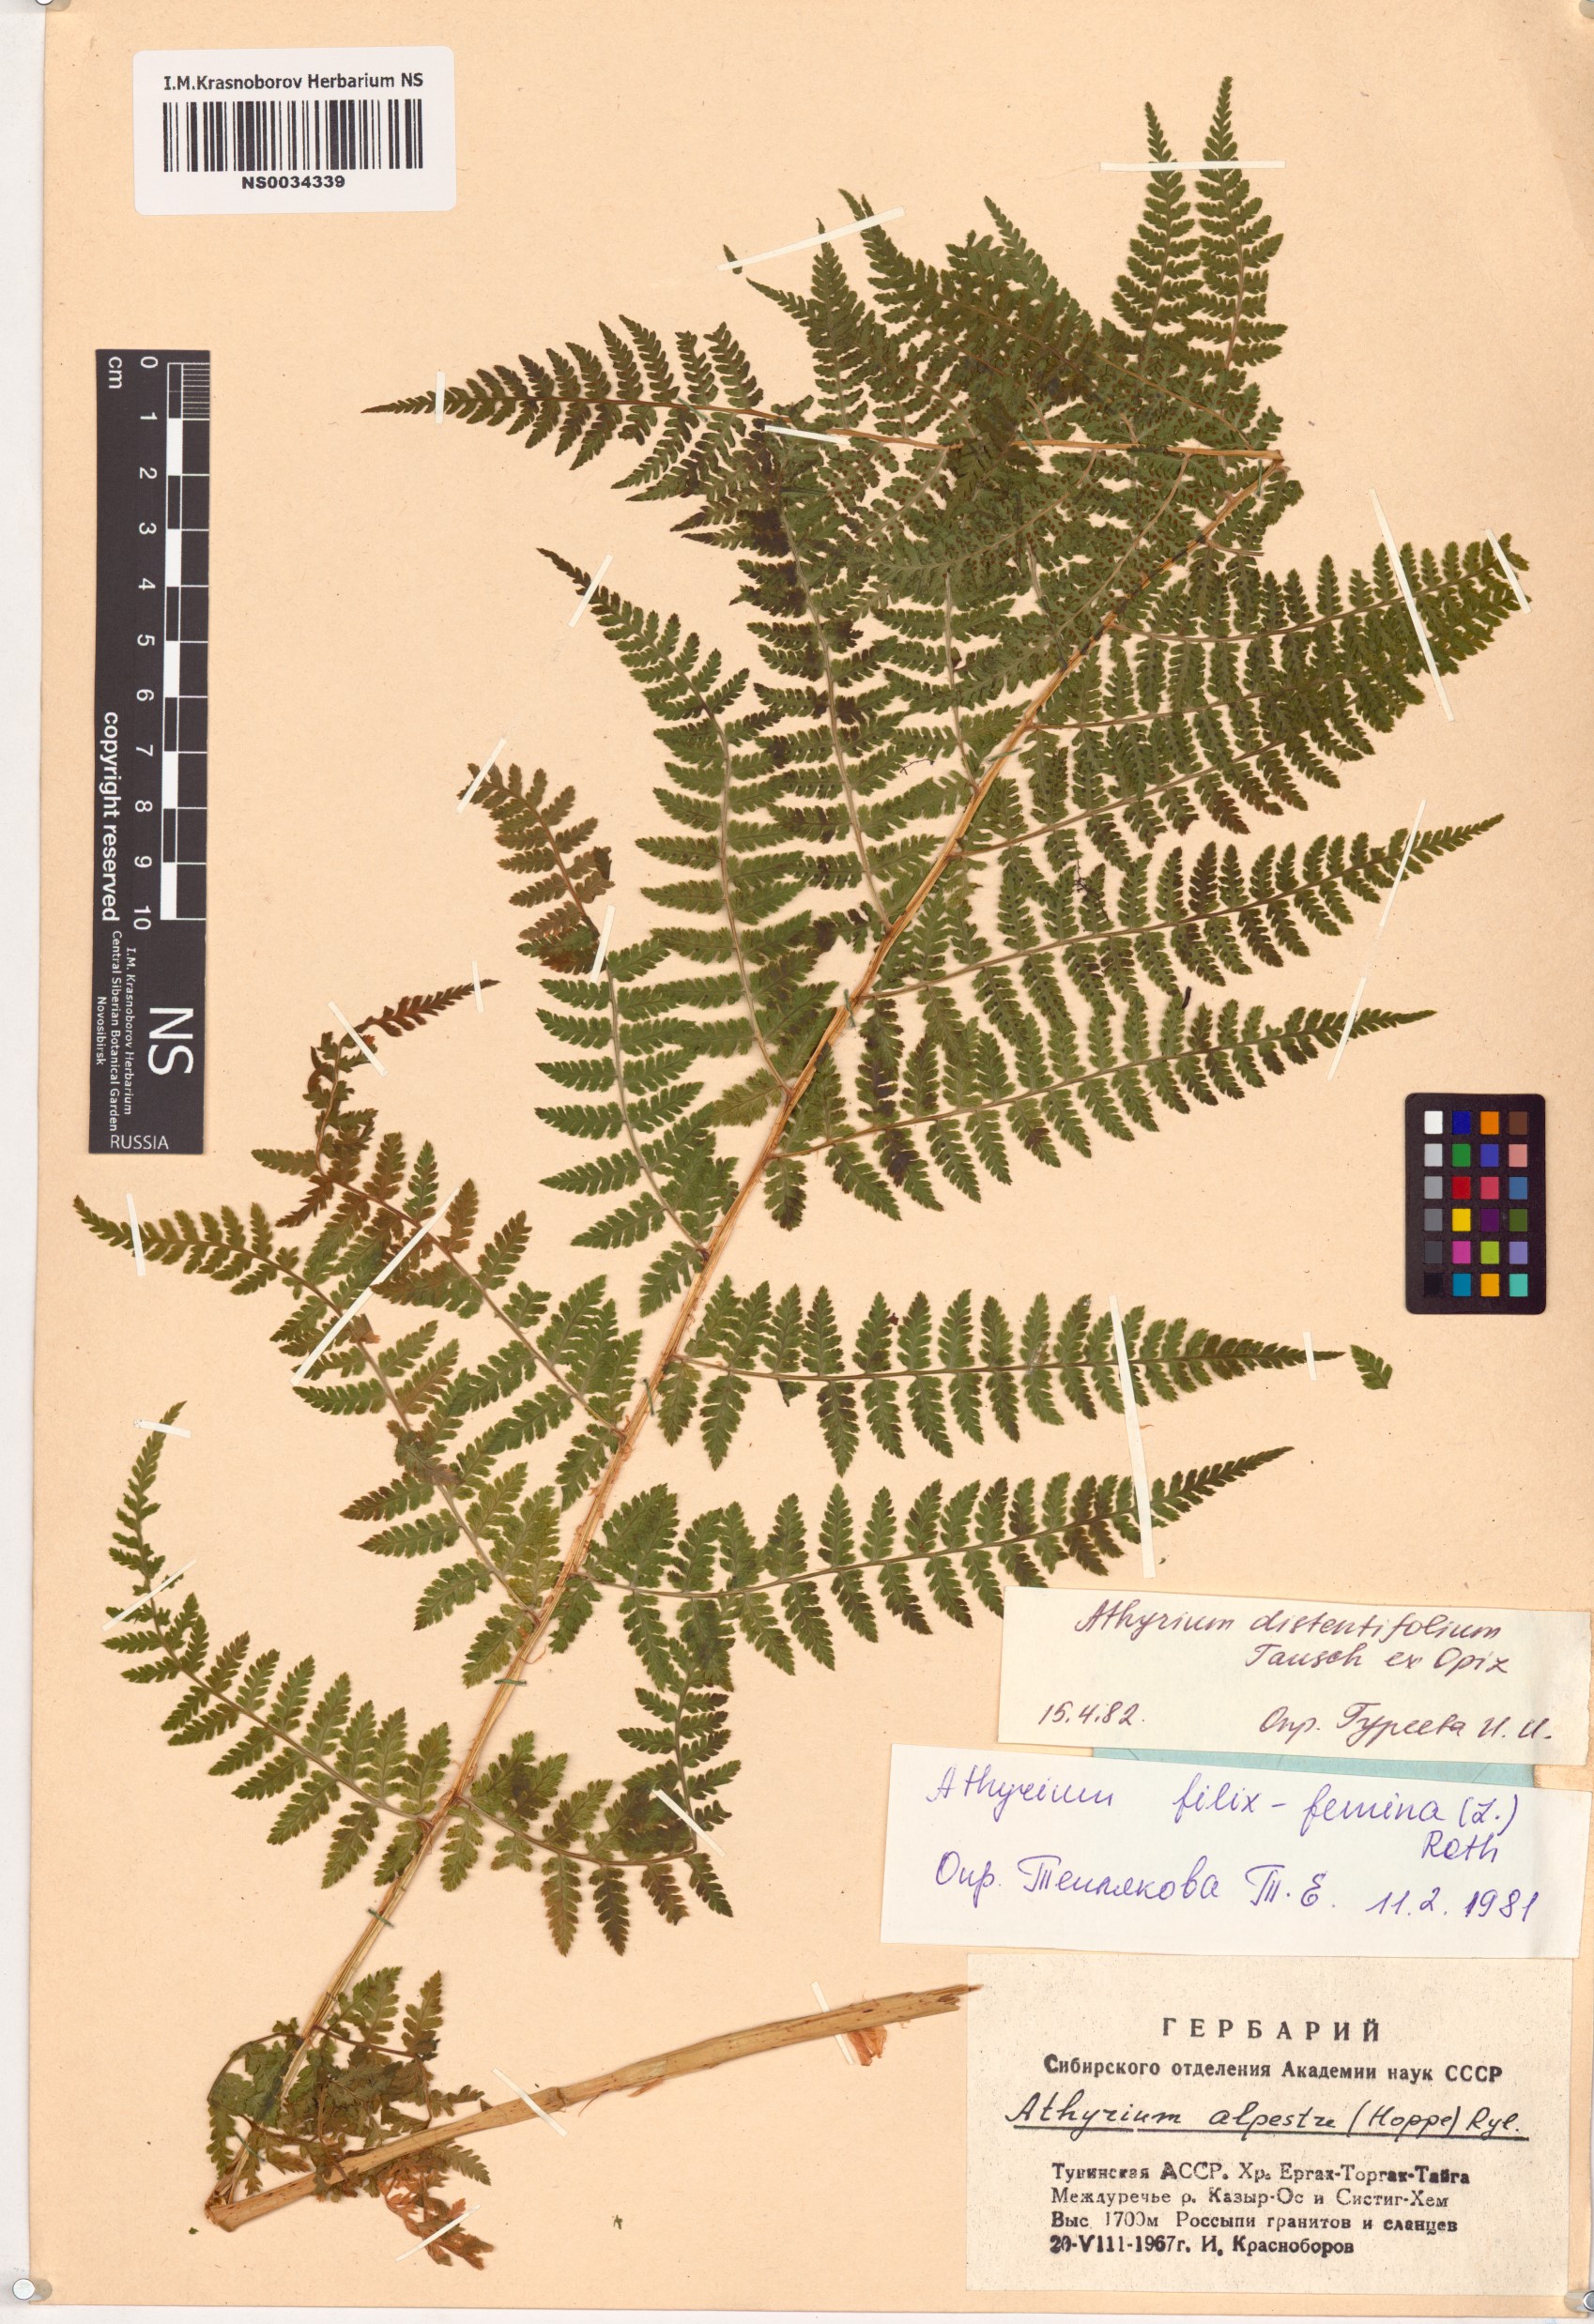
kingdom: Plantae
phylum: Tracheophyta
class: Polypodiopsida
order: Polypodiales
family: Athyriaceae
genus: Pseudathyrium
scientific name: Pseudathyrium alpestre
